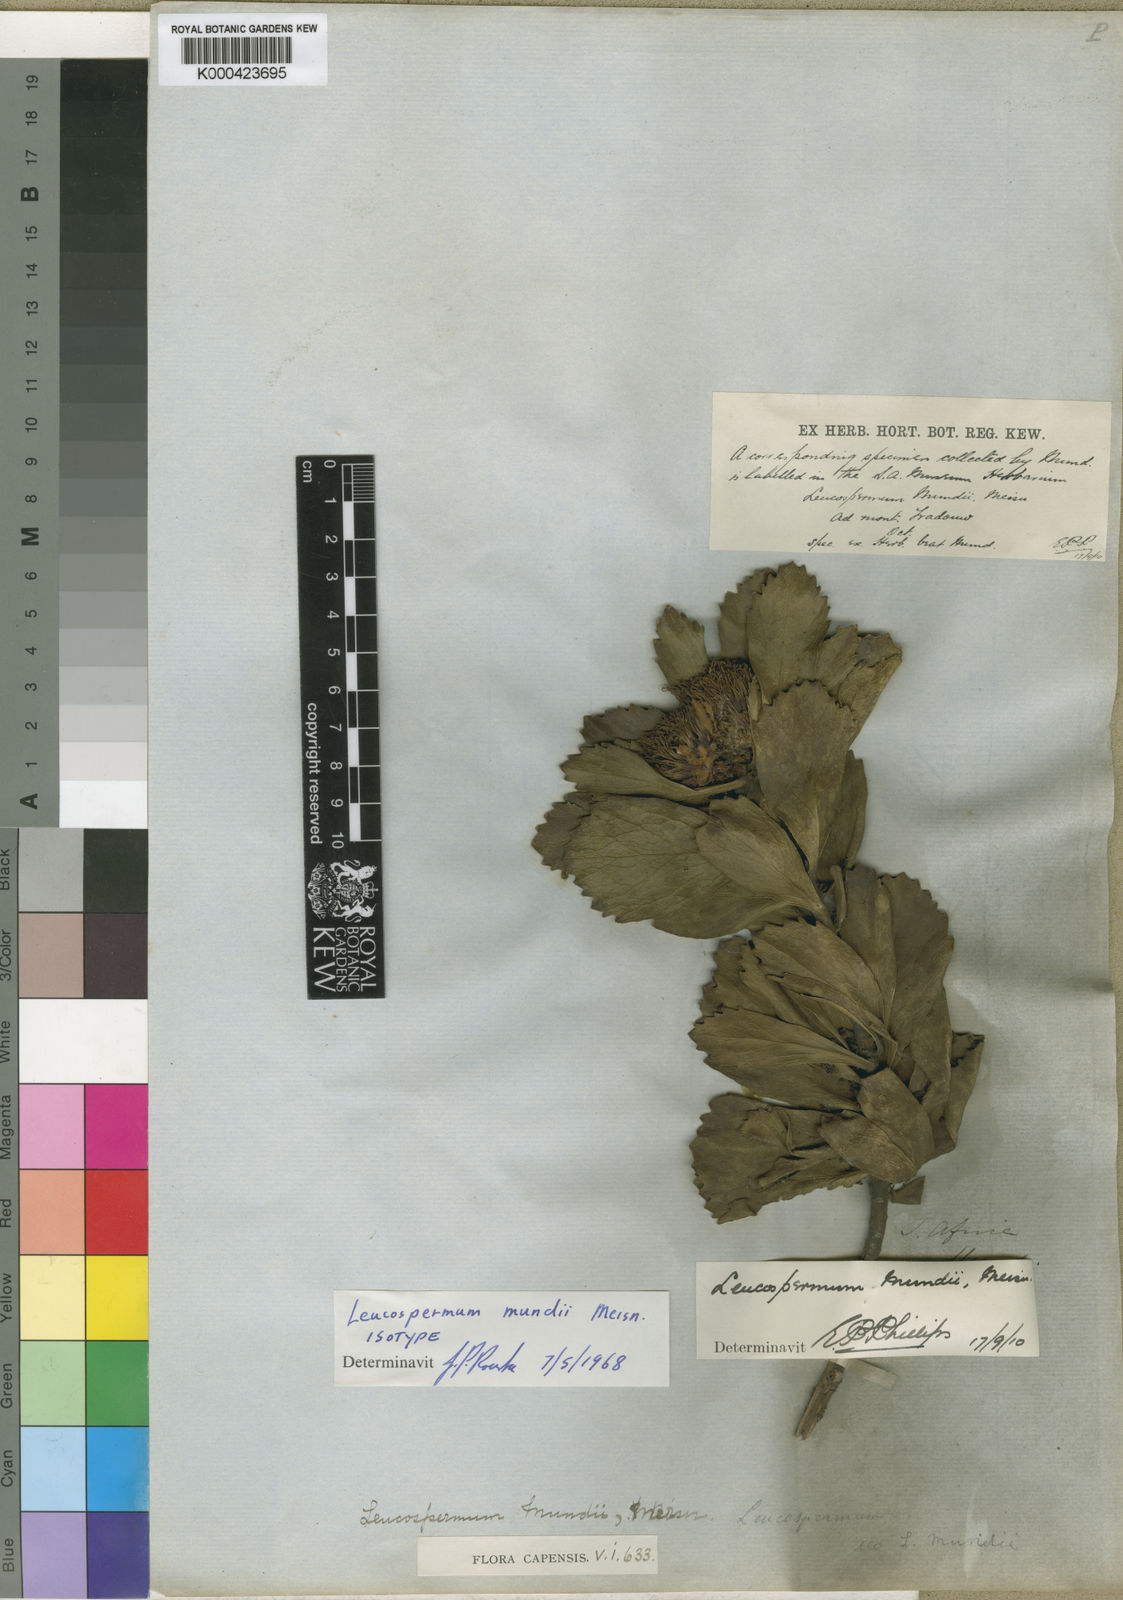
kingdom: Plantae
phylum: Tracheophyta
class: Magnoliopsida
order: Proteales
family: Proteaceae
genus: Leucospermum
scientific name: Leucospermum mundii
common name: Langeberg pincushion
